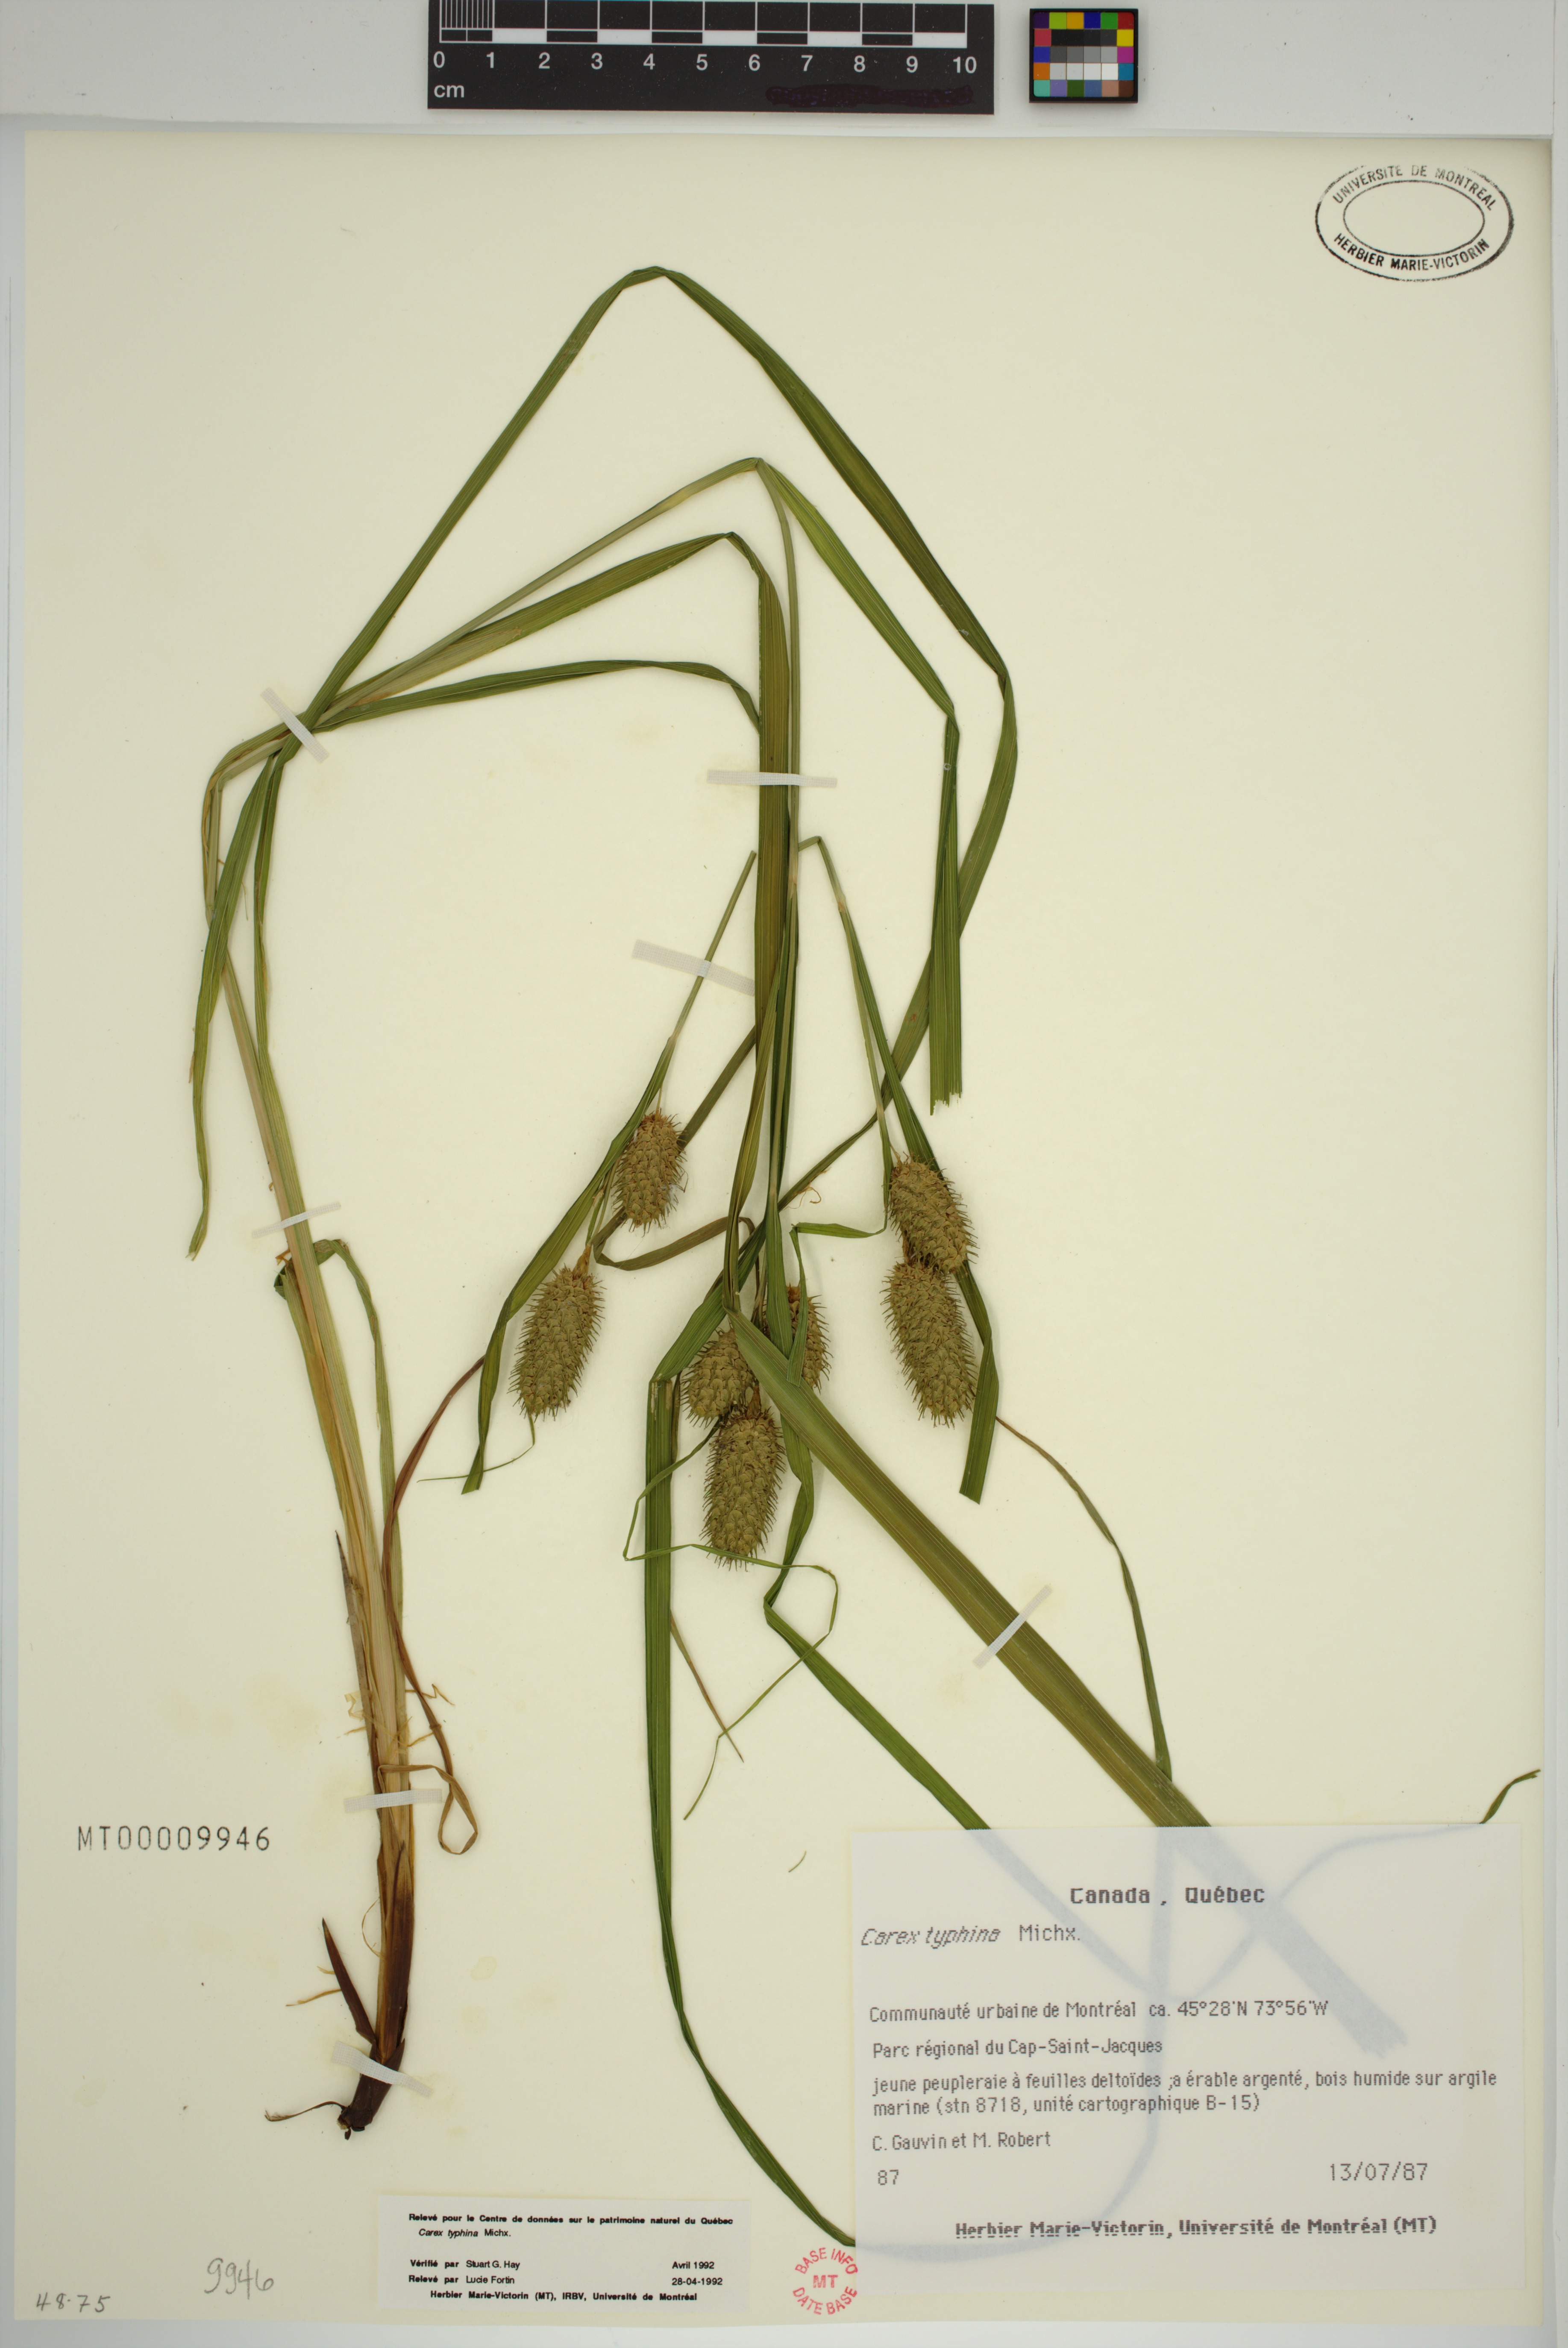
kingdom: Plantae
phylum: Tracheophyta
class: Liliopsida
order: Poales
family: Cyperaceae
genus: Carex
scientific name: Carex typhina
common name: Cattail sedge
